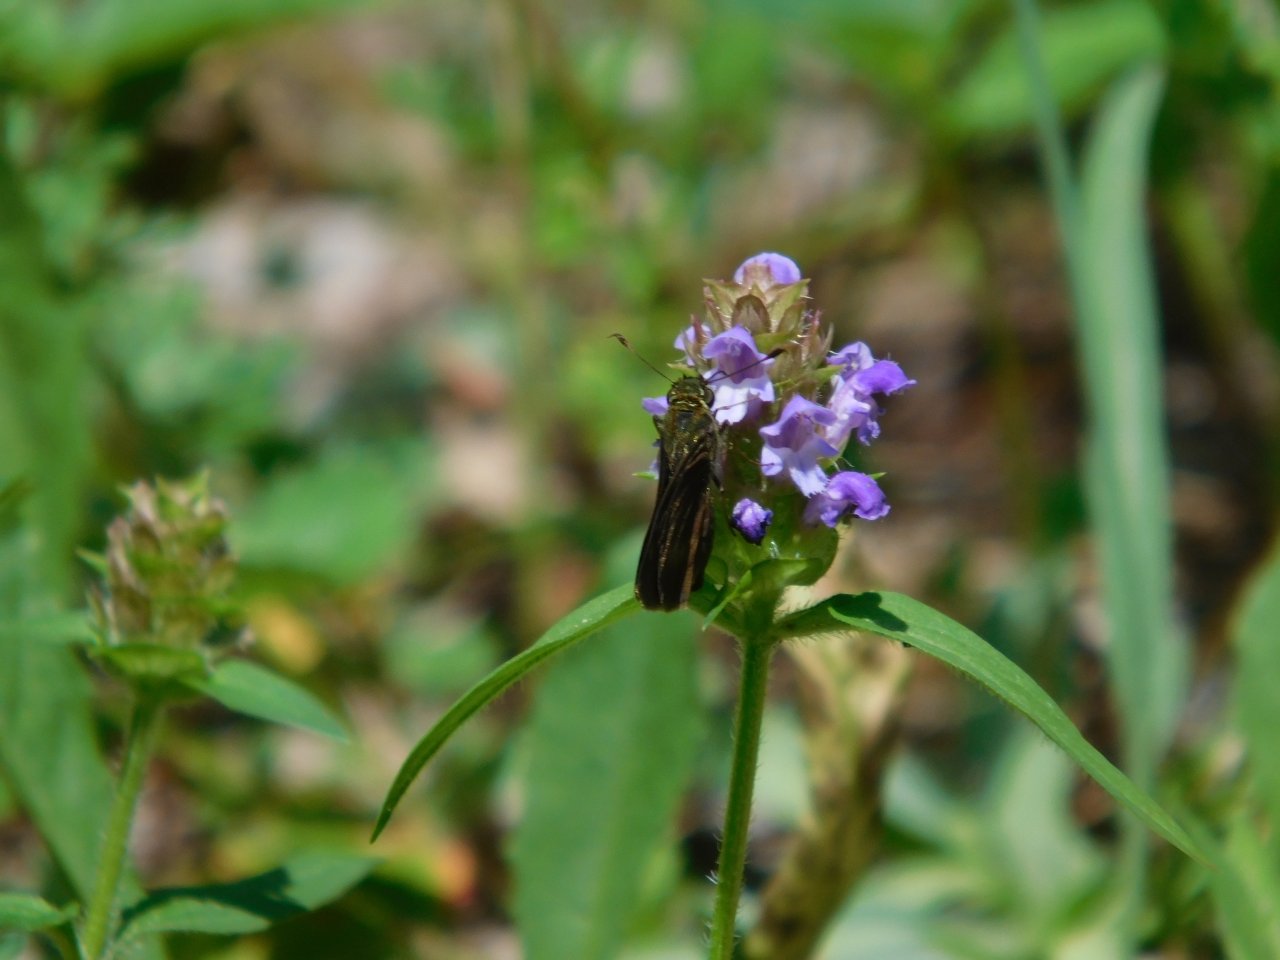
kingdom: Animalia
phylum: Arthropoda
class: Insecta
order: Lepidoptera
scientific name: Lepidoptera
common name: Butterflies
